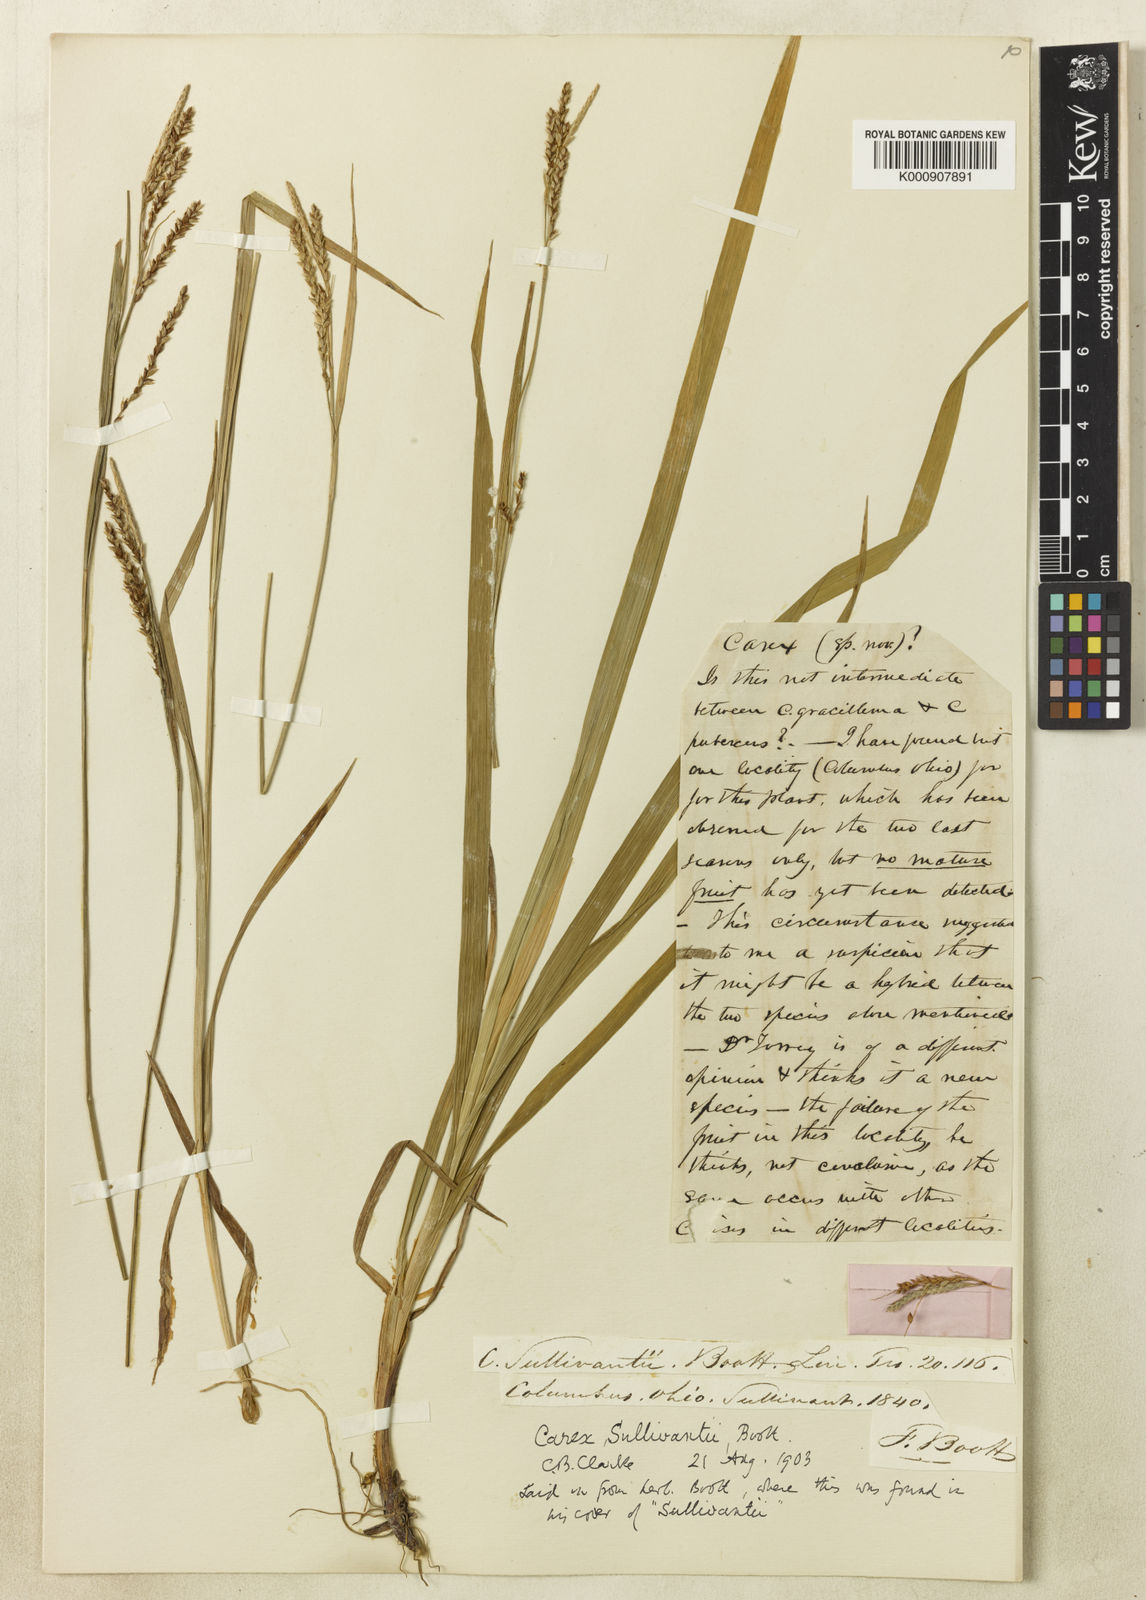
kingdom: Plantae
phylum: Tracheophyta
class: Liliopsida
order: Poales
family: Cyperaceae
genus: Carex
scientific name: Carex sullivantii
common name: Sullivant's sedge
